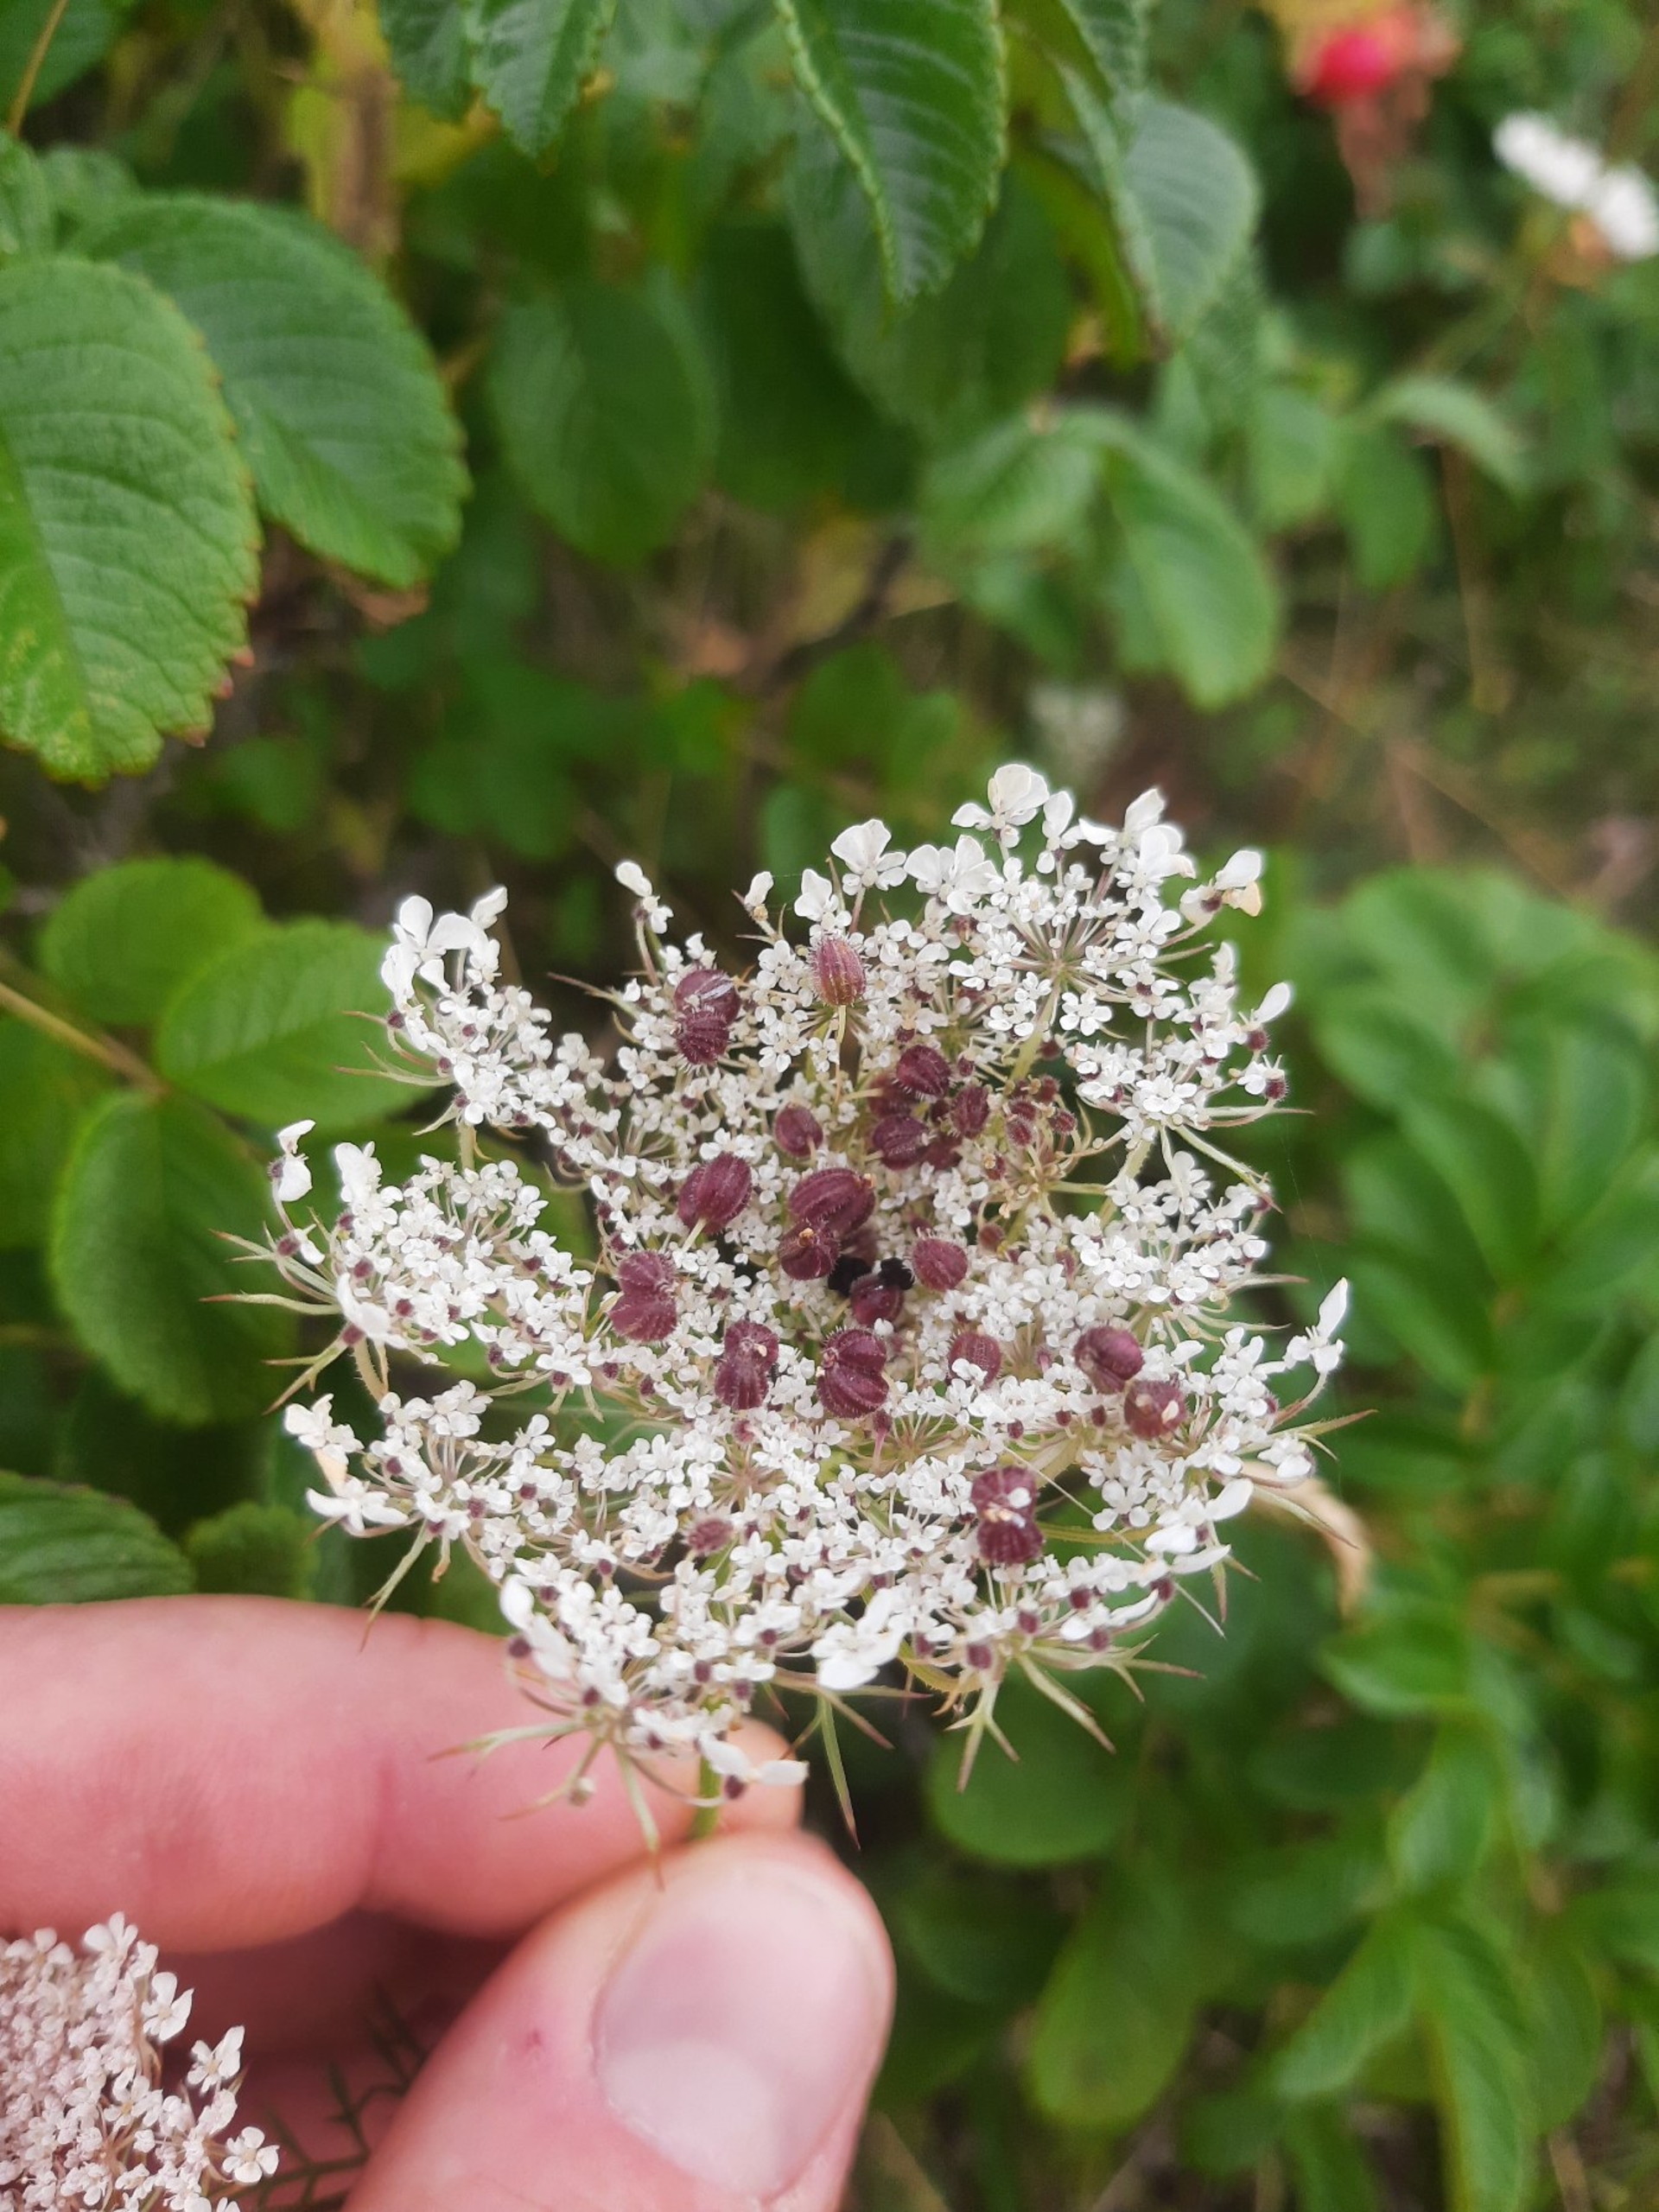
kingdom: Animalia
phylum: Arthropoda
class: Insecta
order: Diptera
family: Cecidomyiidae
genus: Kiefferia
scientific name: Kiefferia pericarpiicola
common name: Gulerodsgalmyg
